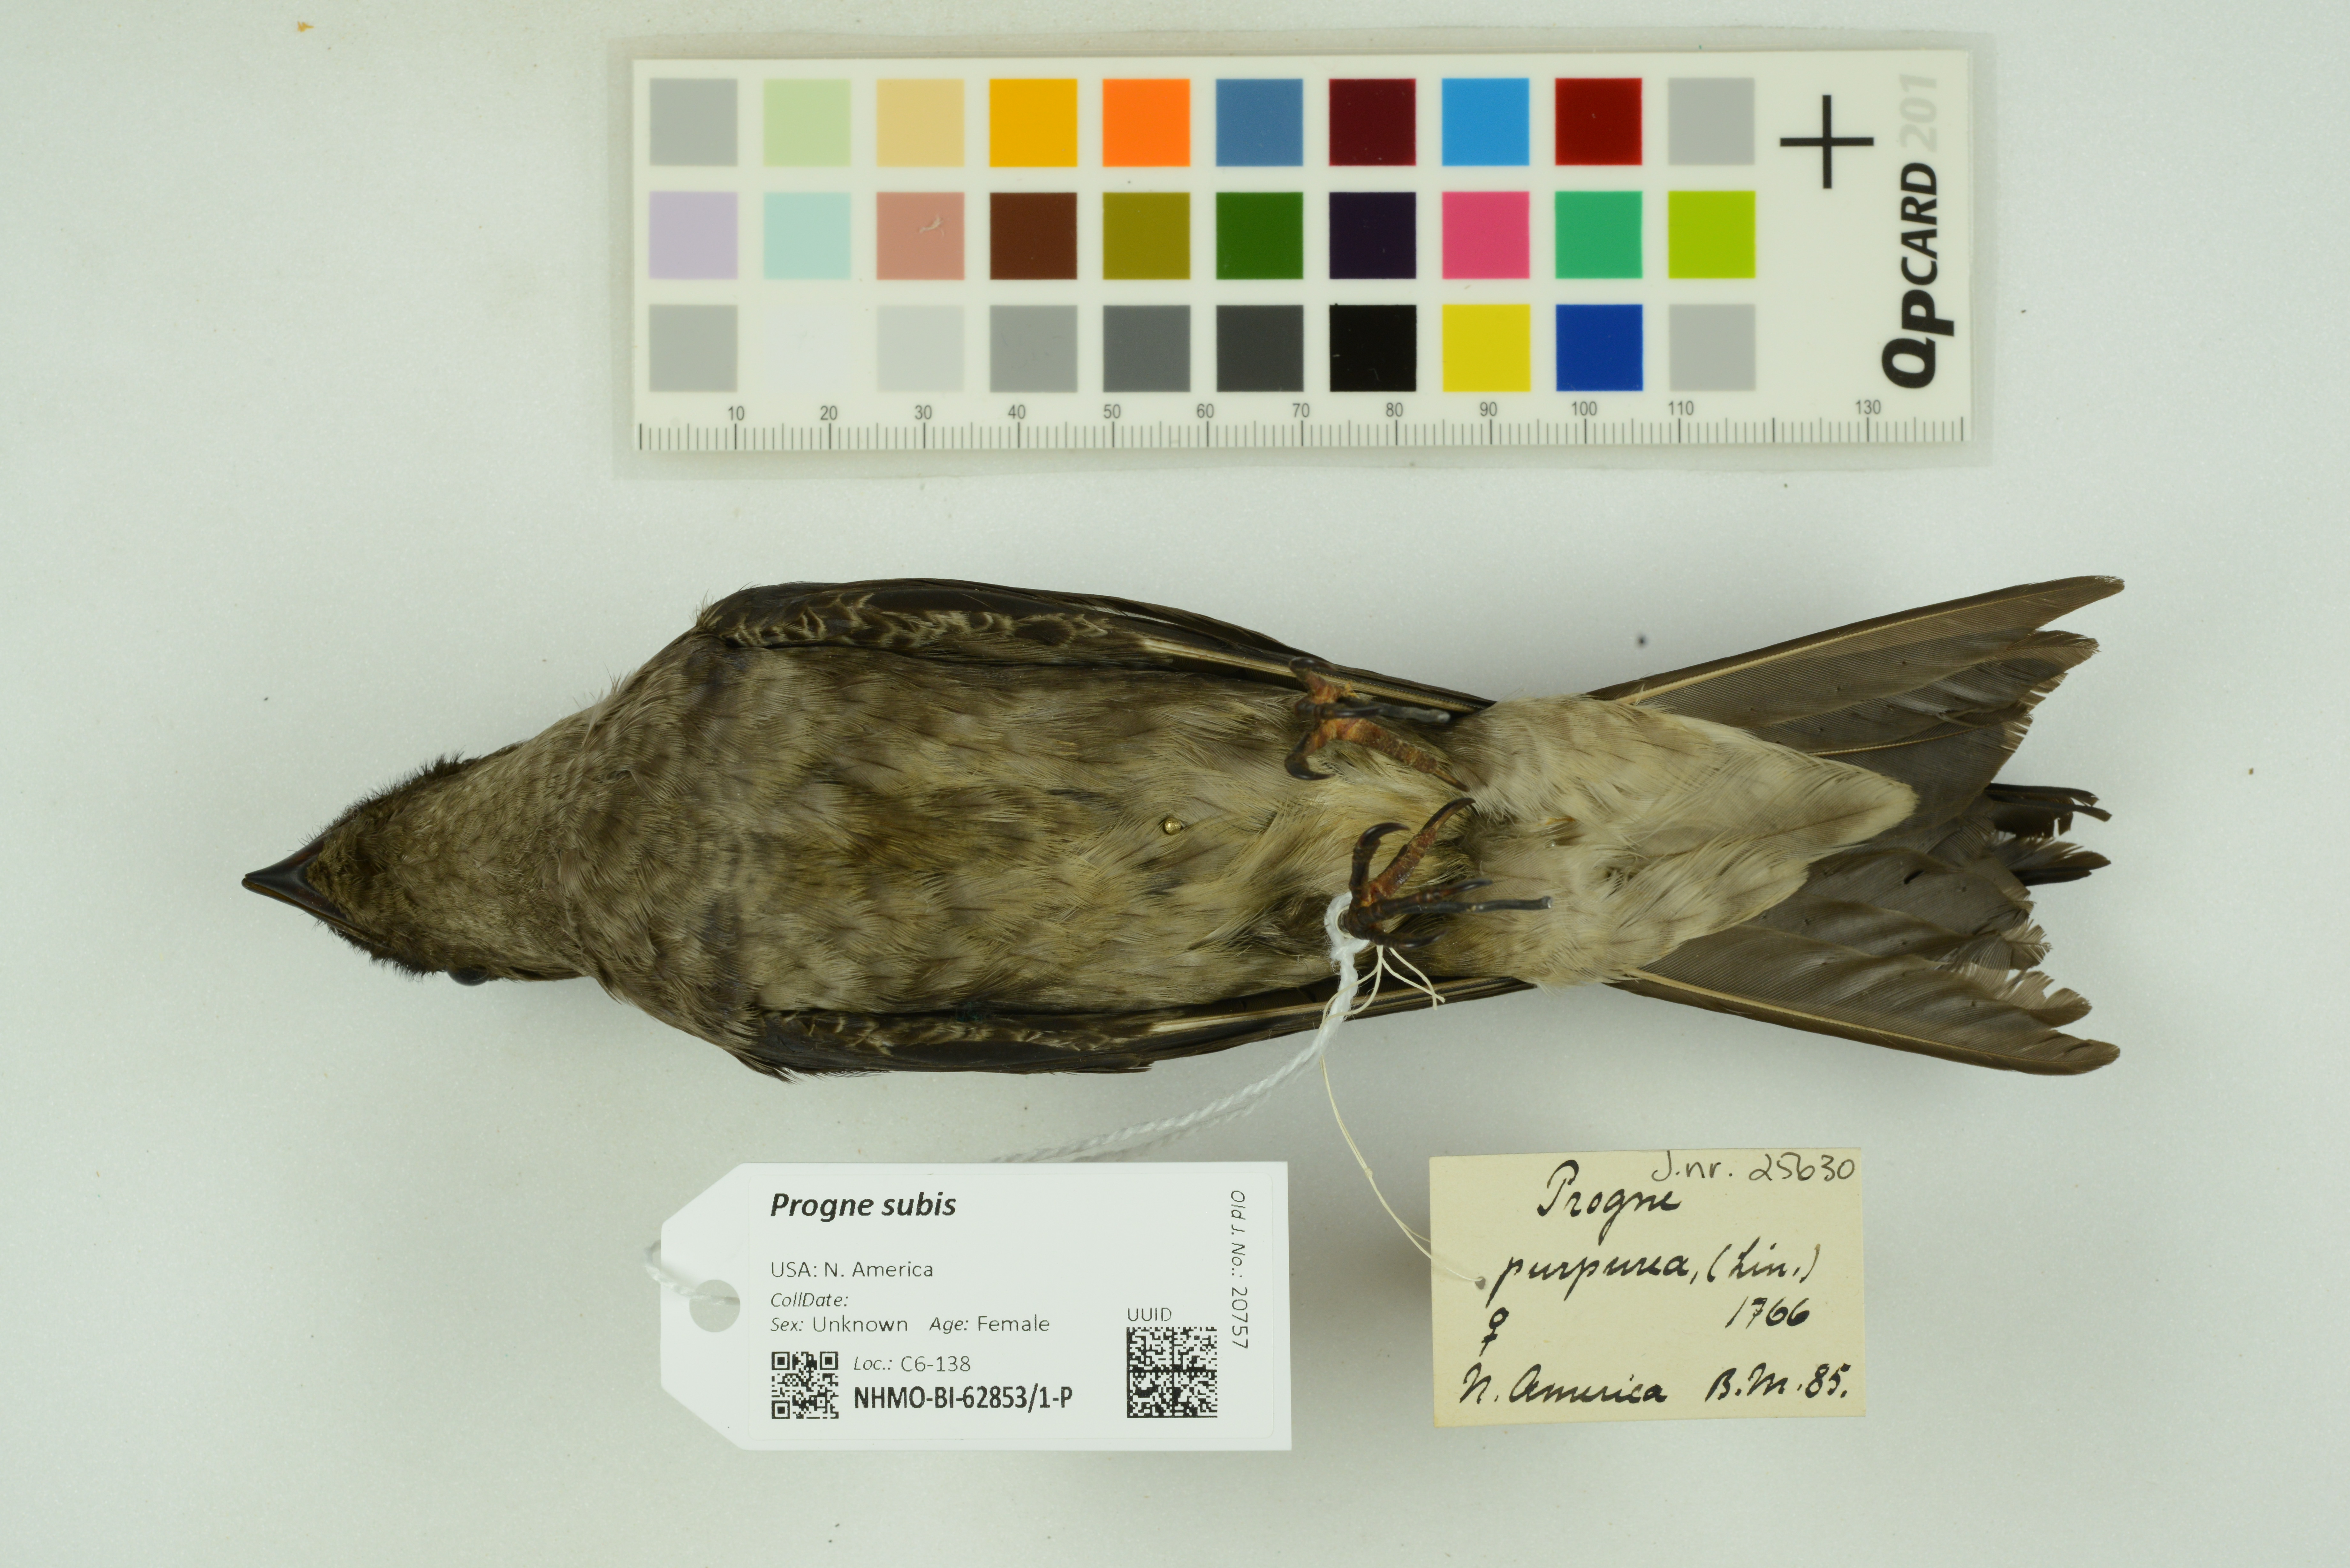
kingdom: Animalia
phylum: Chordata
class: Aves
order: Passeriformes
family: Hirundinidae
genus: Progne
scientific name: Progne subis
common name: Purple martin
